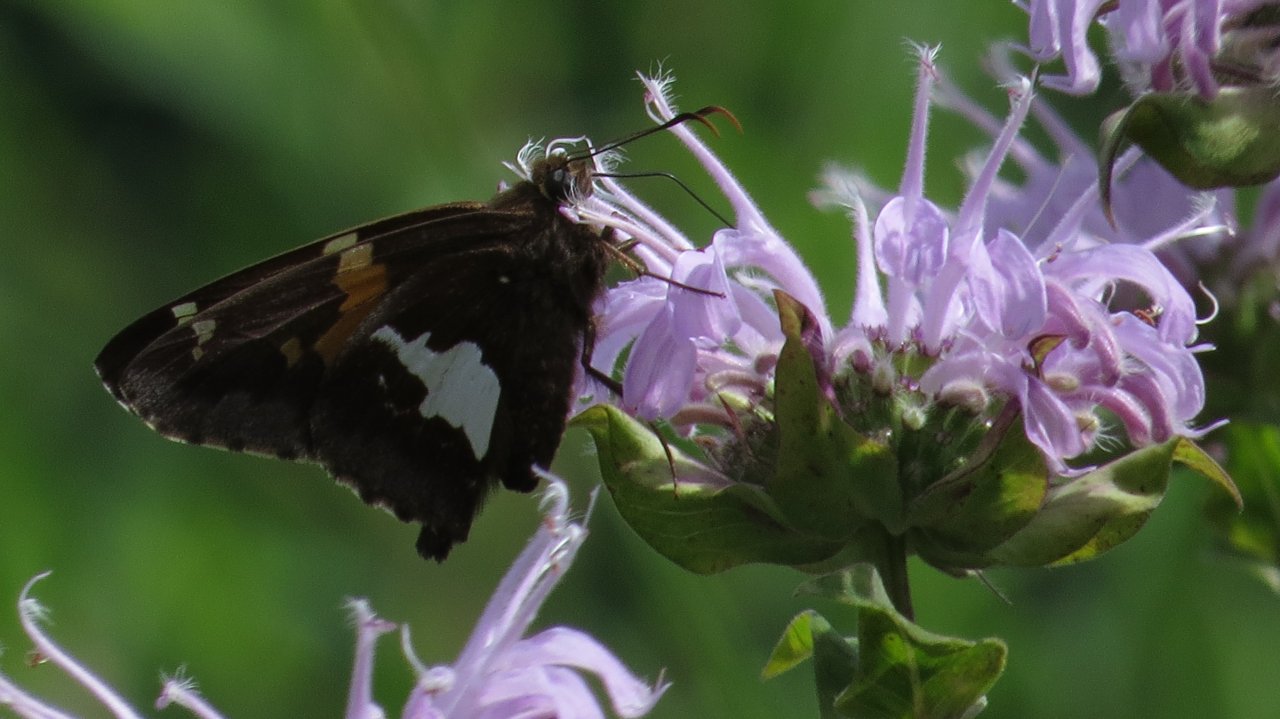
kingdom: Animalia
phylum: Arthropoda
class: Insecta
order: Lepidoptera
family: Hesperiidae
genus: Epargyreus
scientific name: Epargyreus clarus
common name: Silver-spotted Skipper
